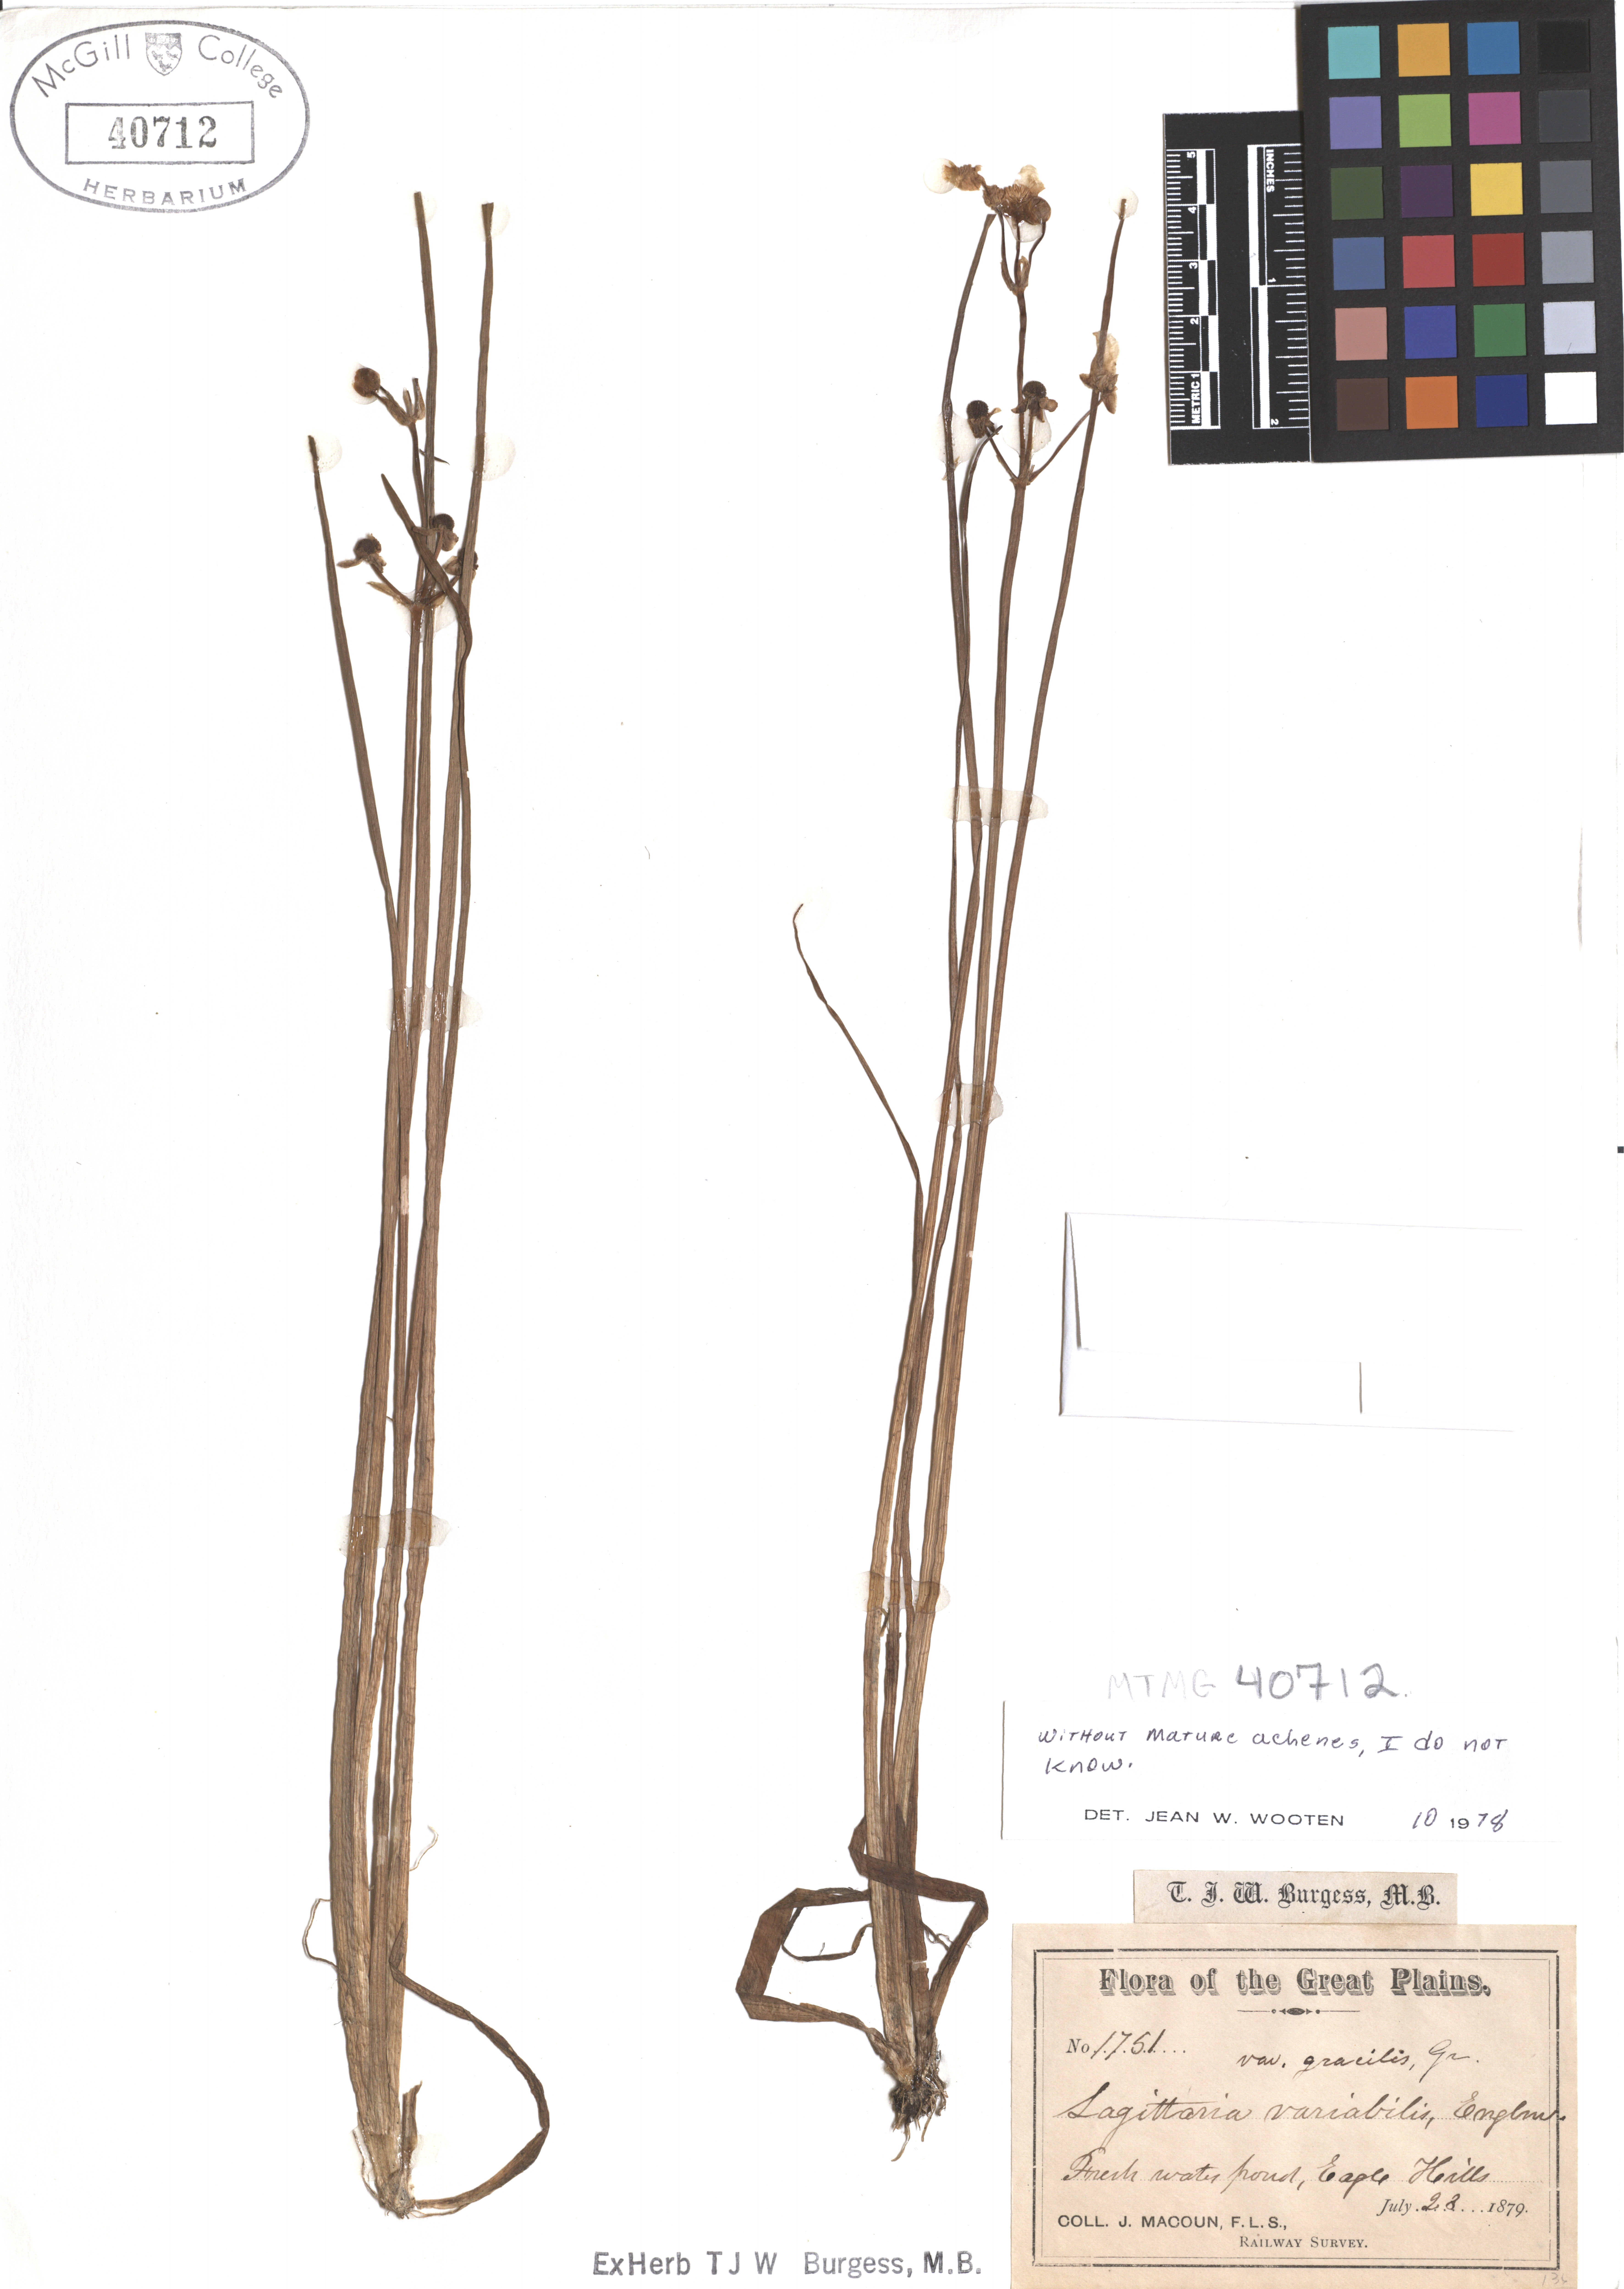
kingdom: Plantae
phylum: Tracheophyta
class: Liliopsida
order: Alismatales
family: Alismataceae
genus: Sagittaria
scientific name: Sagittaria latifolia
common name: Duck-potato
